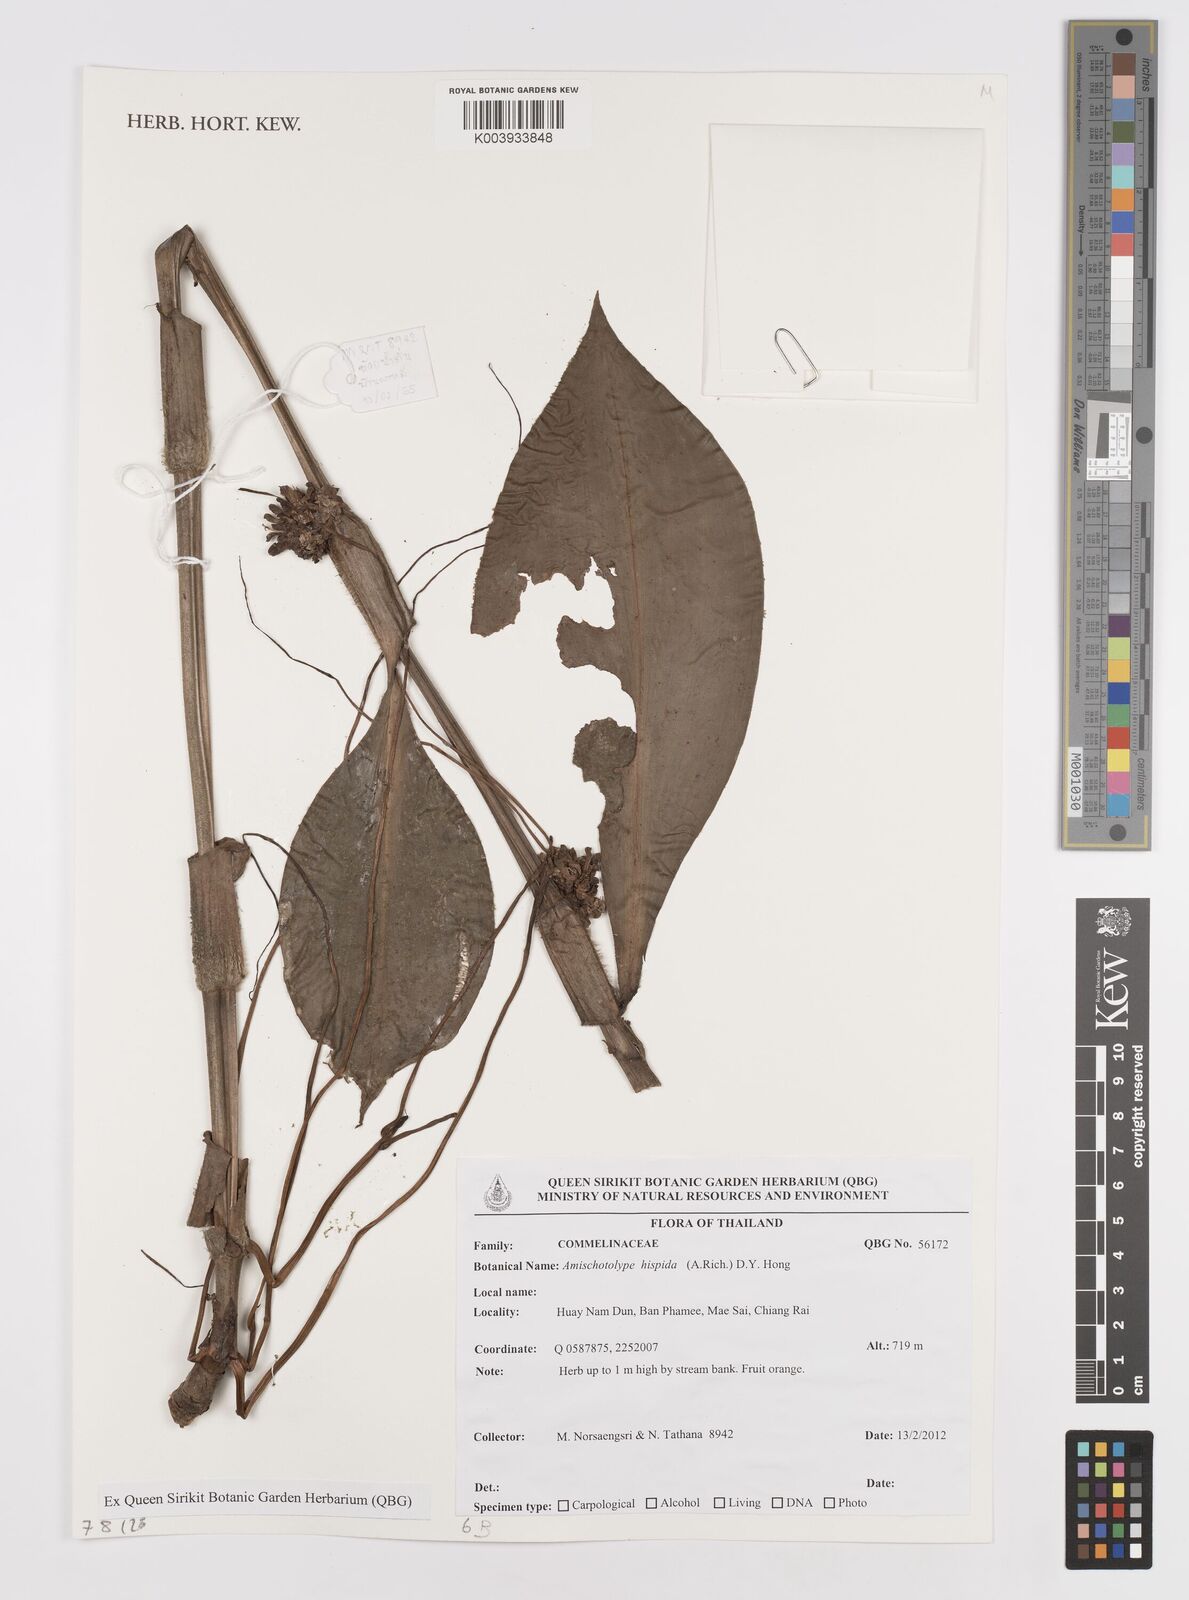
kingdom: Plantae
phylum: Tracheophyta
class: Liliopsida
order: Commelinales
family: Commelinaceae
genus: Amischotolype
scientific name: Amischotolype hispida
